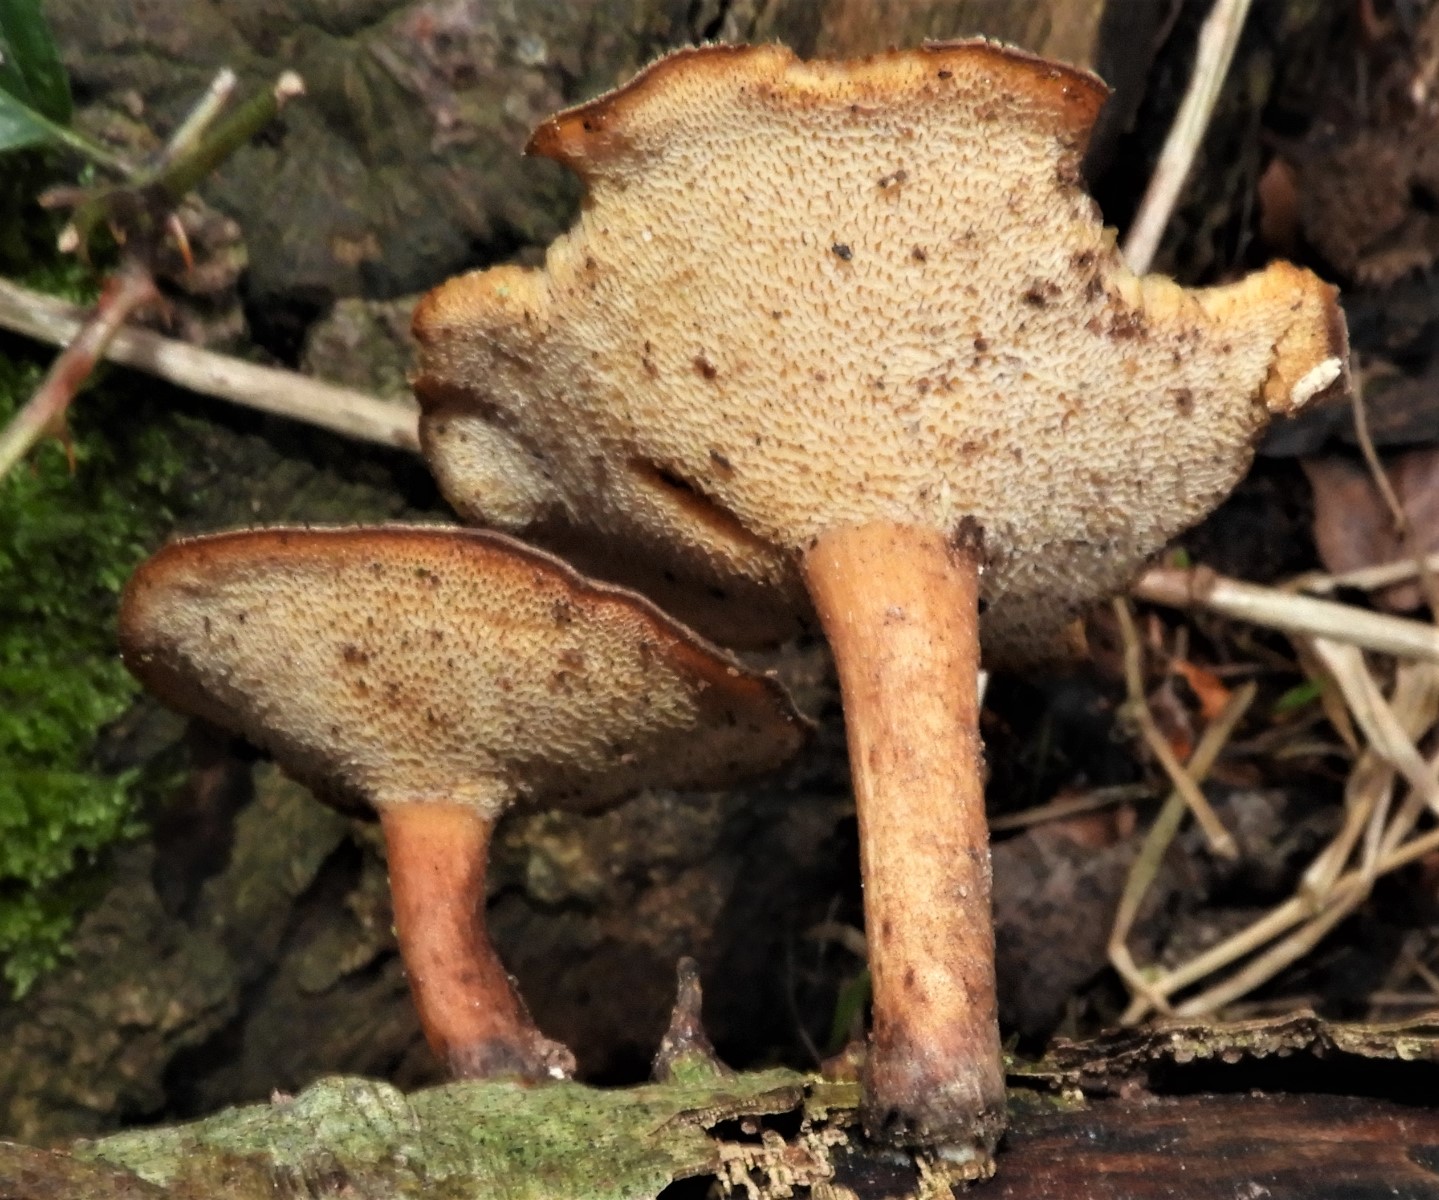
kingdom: Fungi
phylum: Basidiomycota
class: Agaricomycetes
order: Polyporales
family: Polyporaceae
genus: Lentinus
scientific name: Lentinus brumalis
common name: vinter-stilkporesvamp
